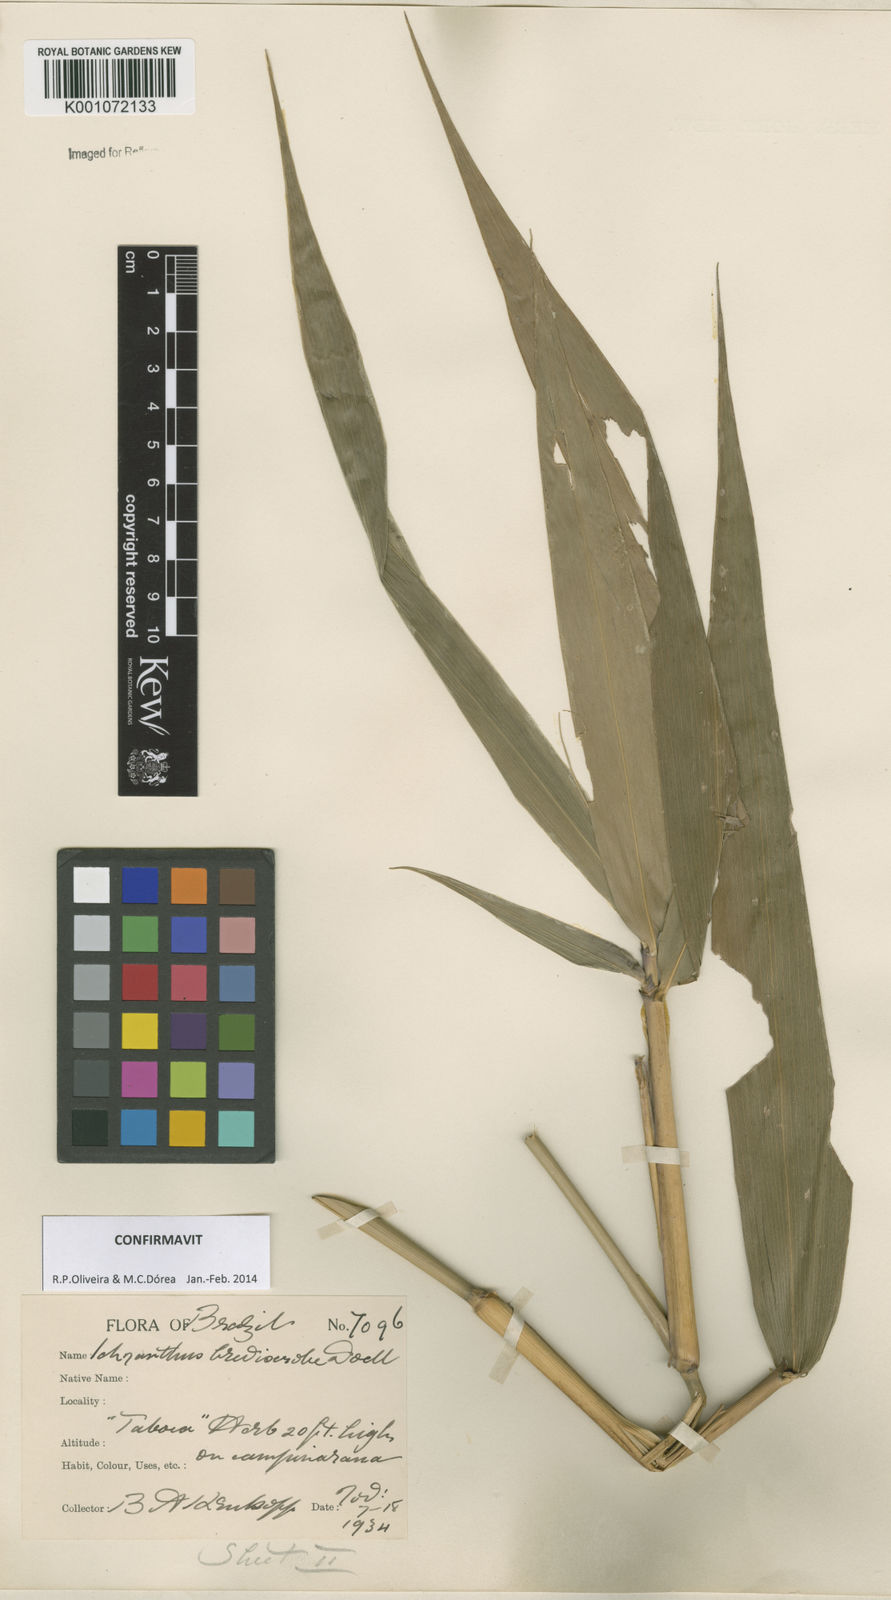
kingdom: Plantae
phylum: Tracheophyta
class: Liliopsida
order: Poales
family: Poaceae
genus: Ichnanthus
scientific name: Ichnanthus
